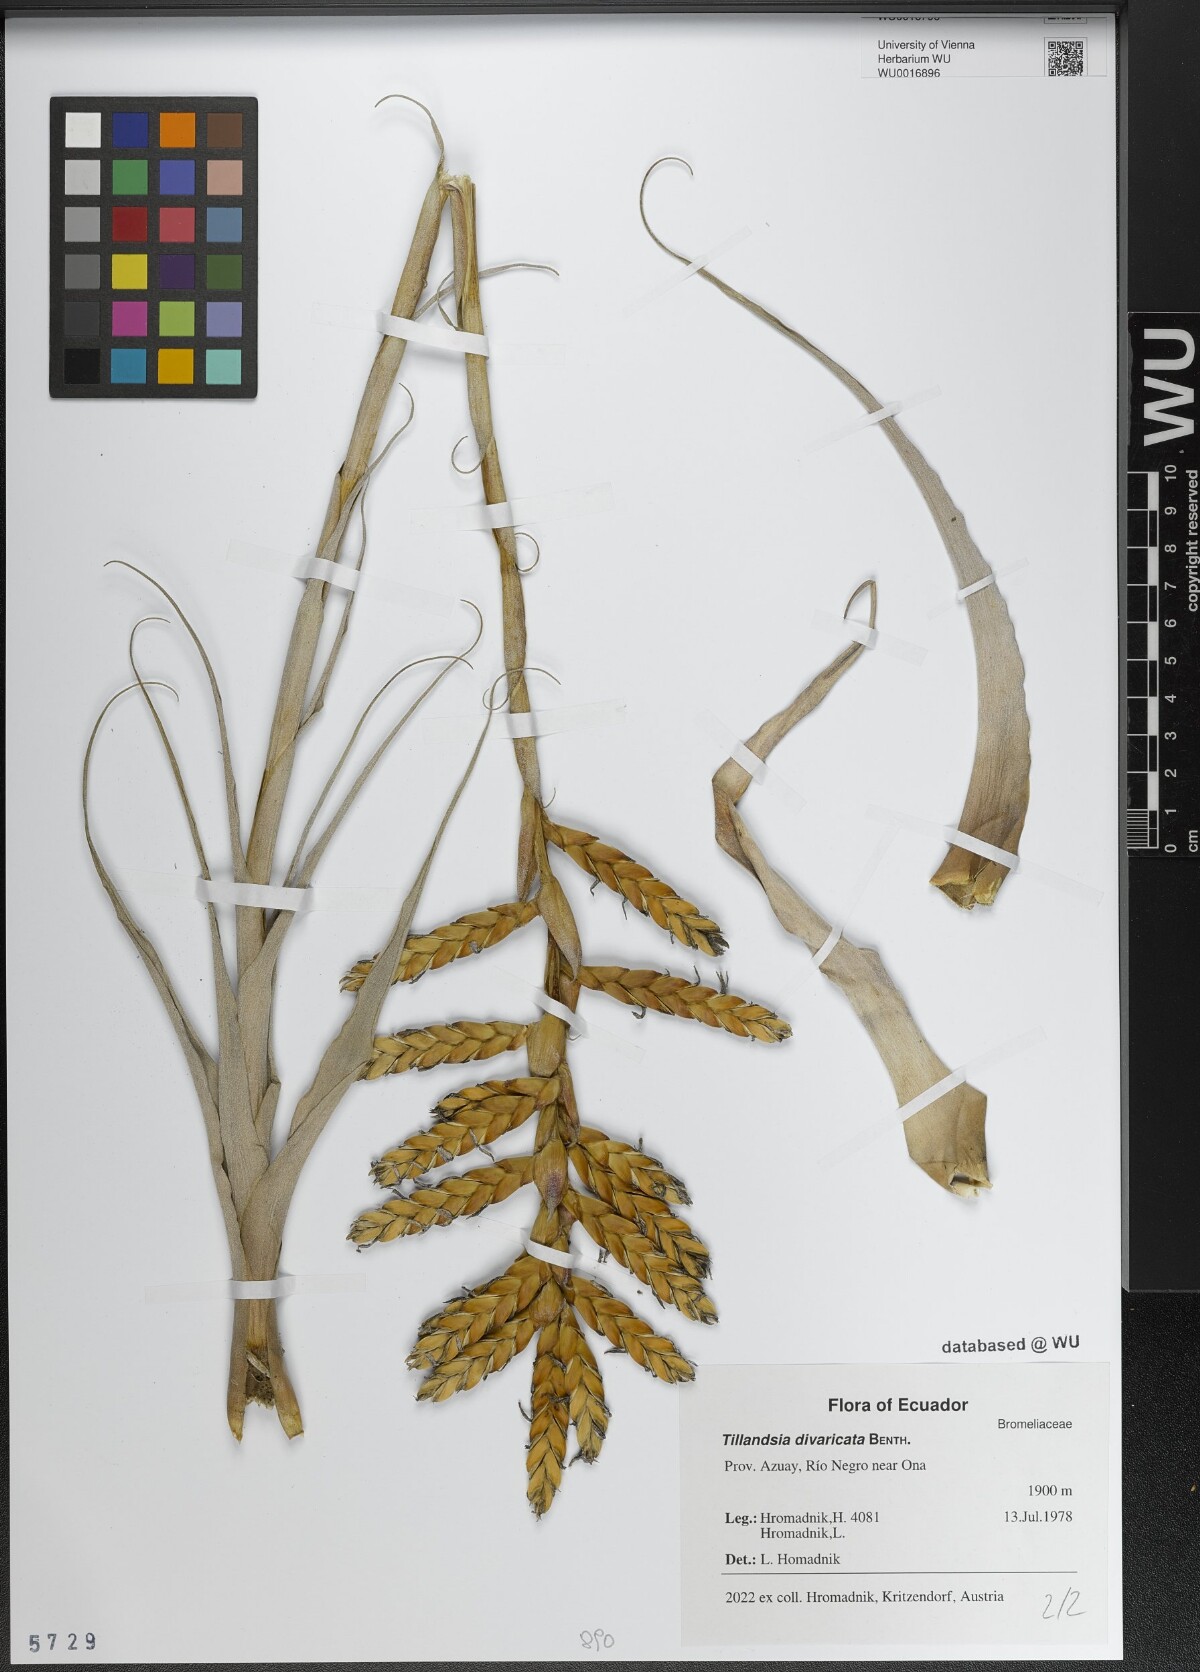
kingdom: Plantae
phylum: Tracheophyta
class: Liliopsida
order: Poales
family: Bromeliaceae
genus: Tillandsia
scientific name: Tillandsia latifolia
